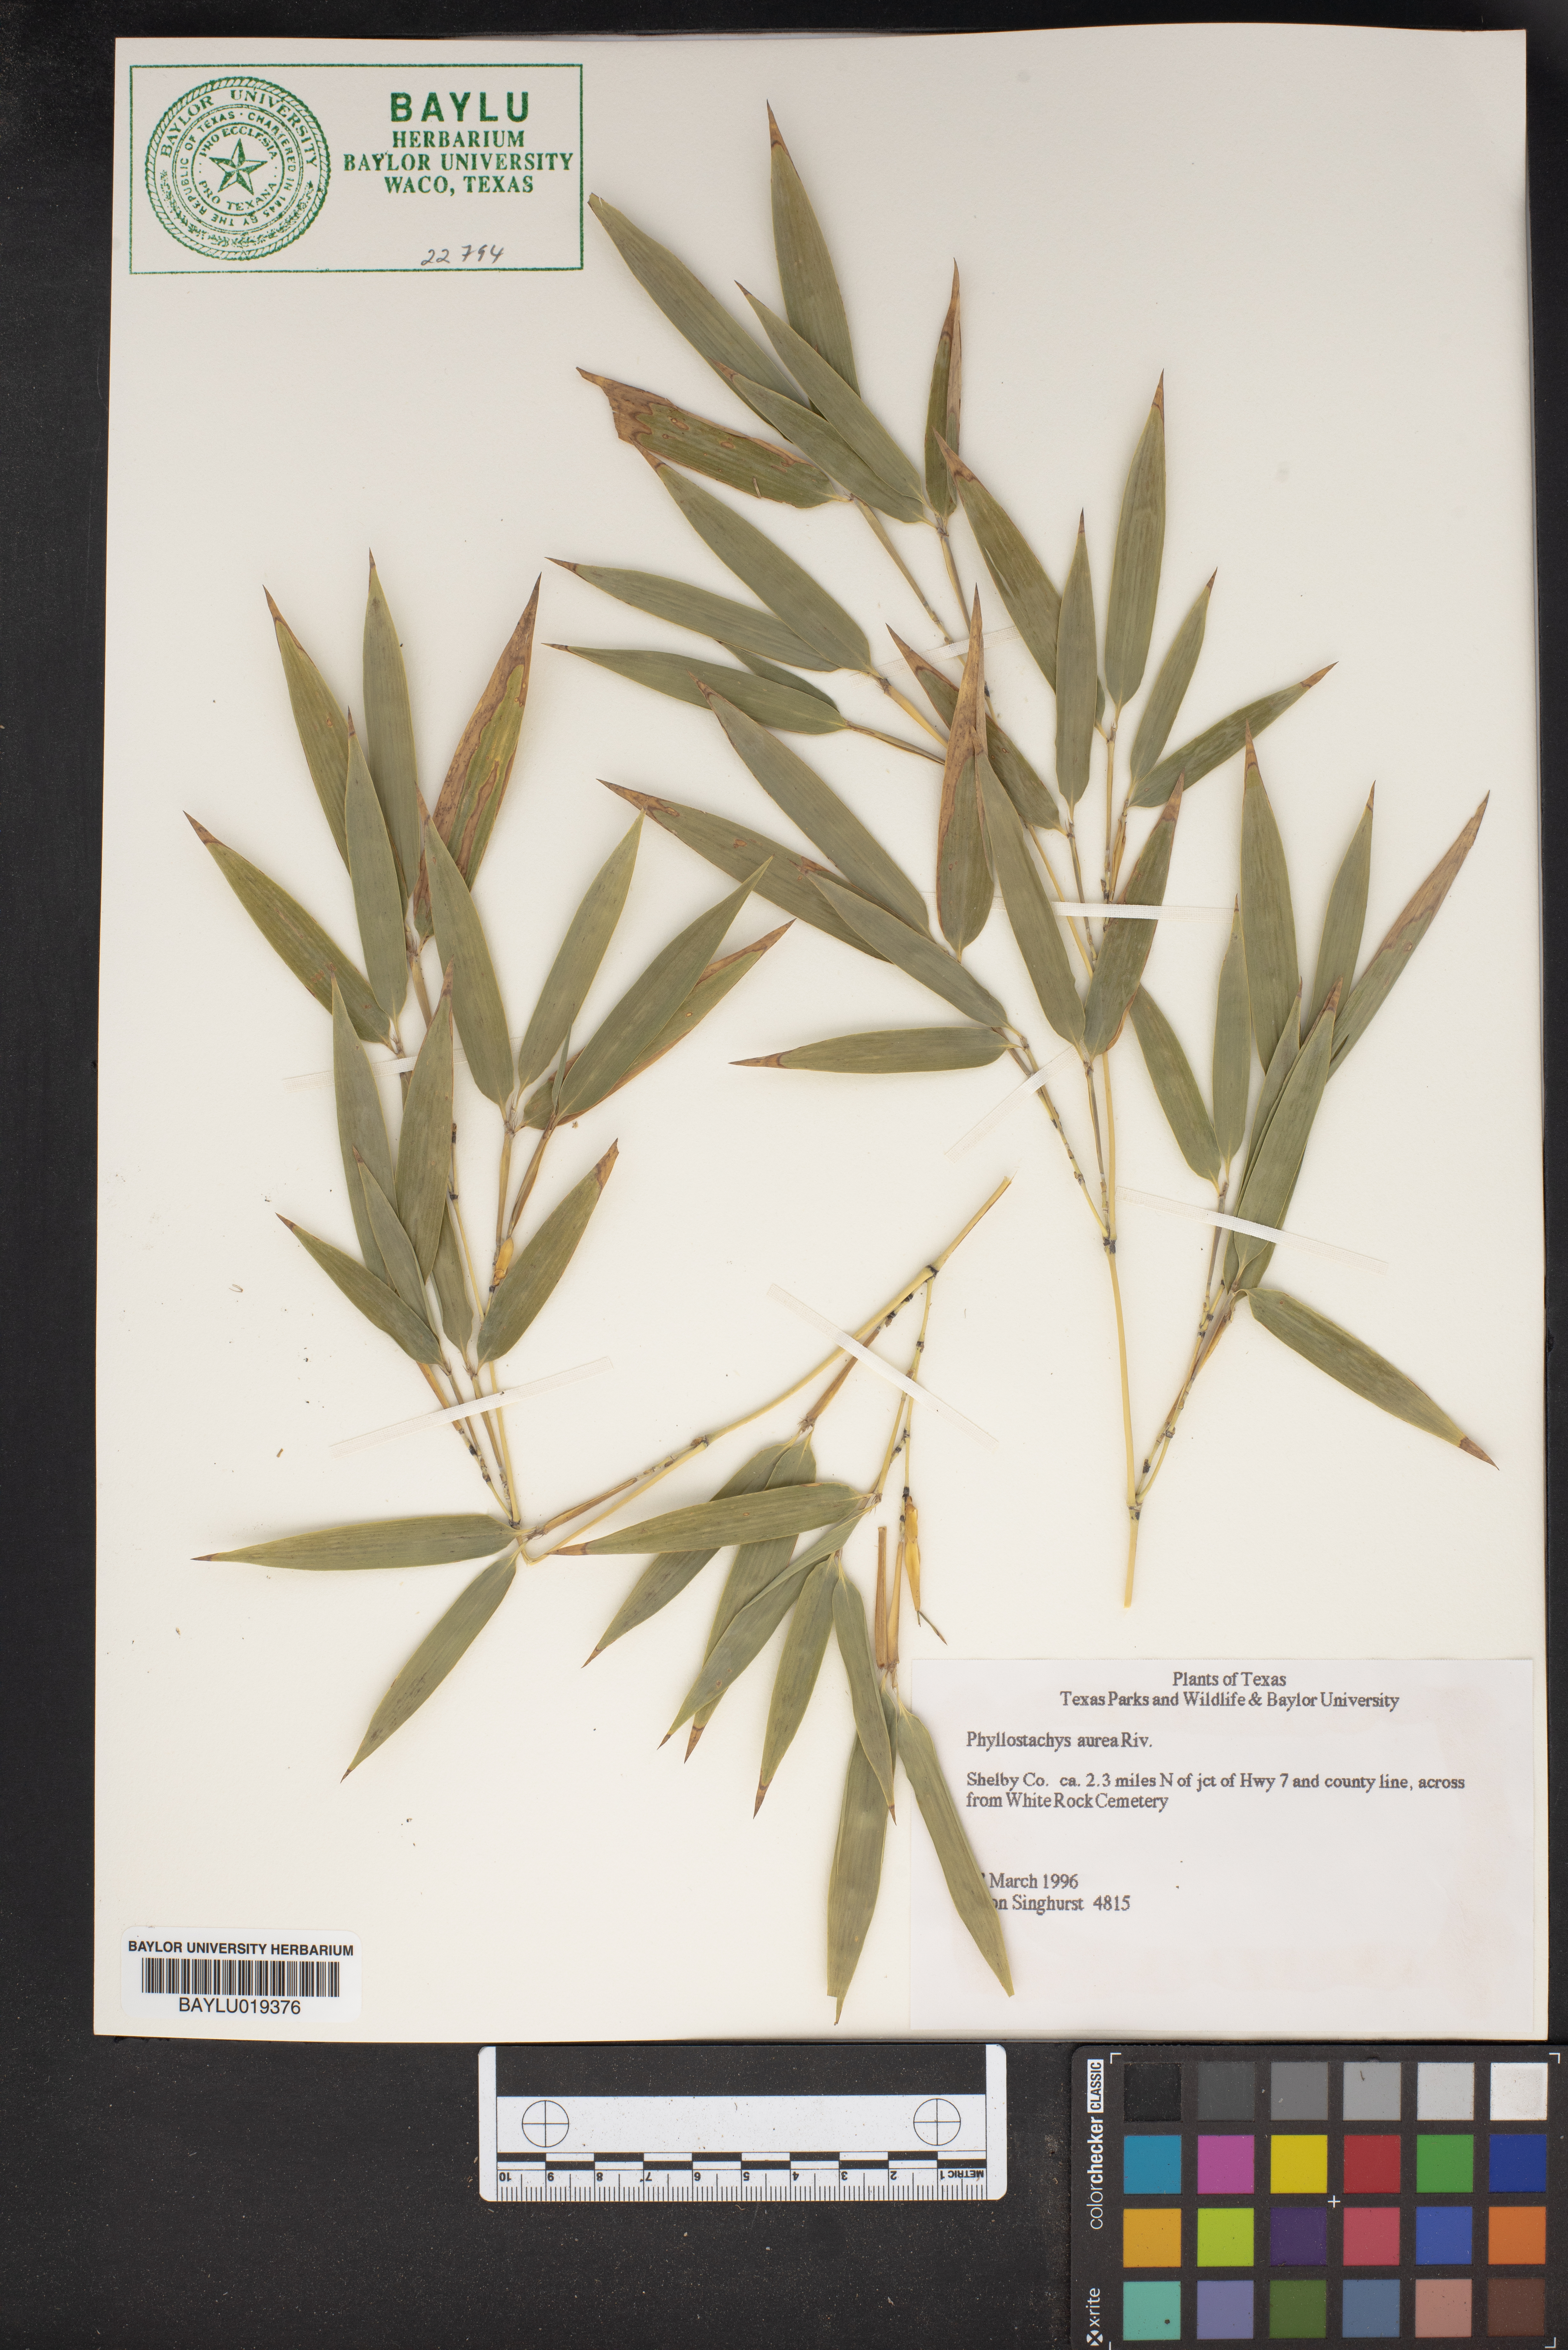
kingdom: Plantae
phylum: Tracheophyta
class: Liliopsida
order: Poales
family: Poaceae
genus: Phyllostachys
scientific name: Phyllostachys aurea
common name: Golden bamboo
